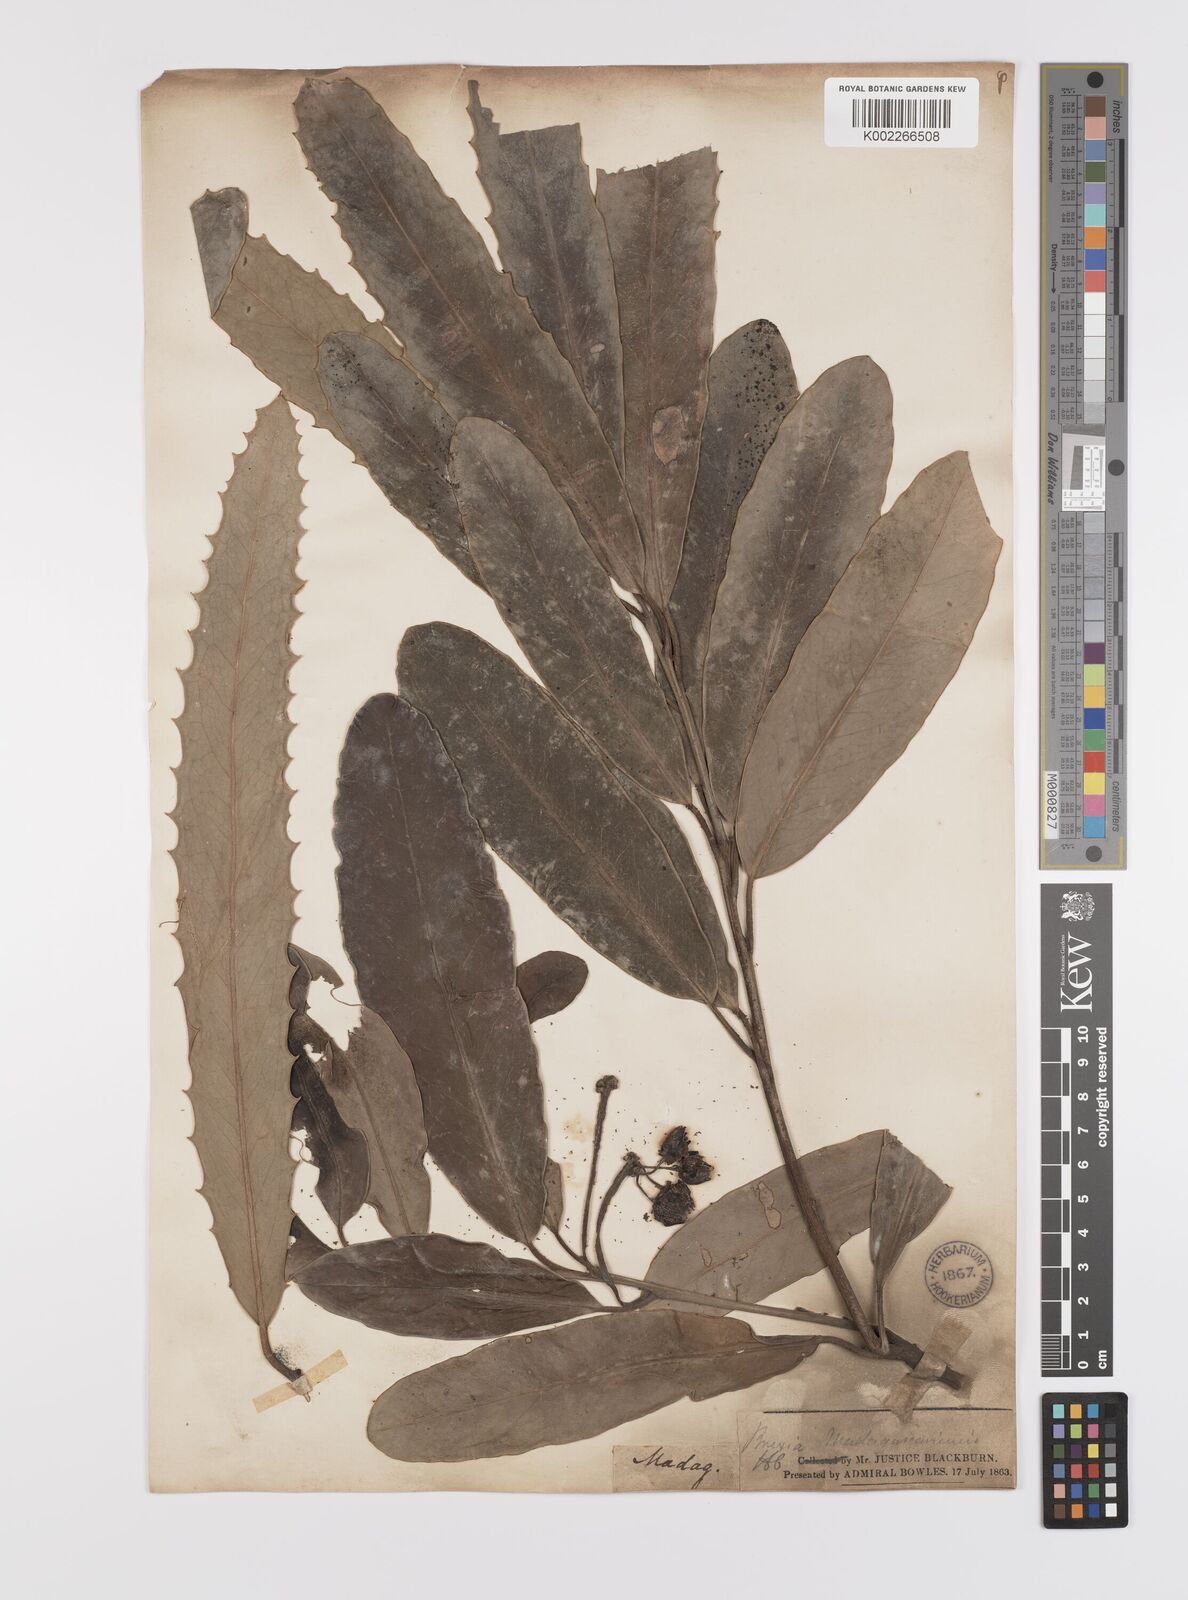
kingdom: Plantae
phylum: Tracheophyta
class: Magnoliopsida
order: Celastrales
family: Celastraceae
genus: Brexia
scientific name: Brexia madagascariensis
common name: Brexia
